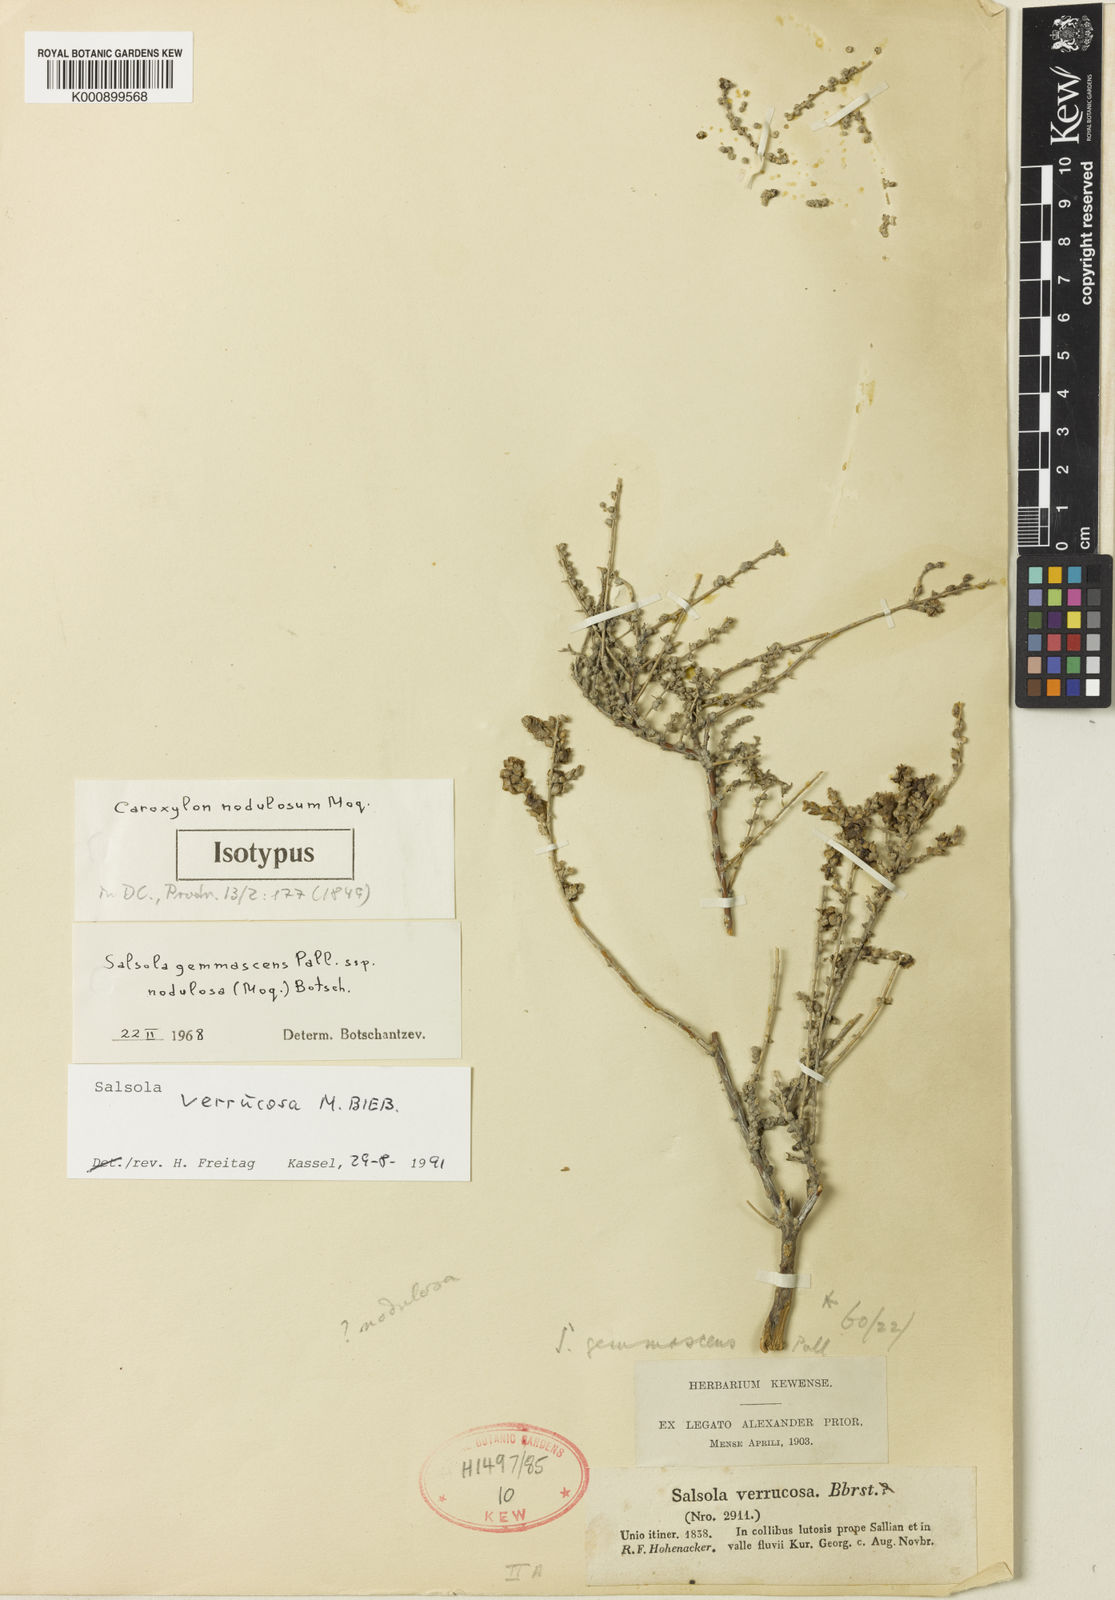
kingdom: Plantae
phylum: Tracheophyta
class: Magnoliopsida
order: Caryophyllales
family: Amaranthaceae
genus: Nitrosalsola
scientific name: Nitrosalsola dendroides
